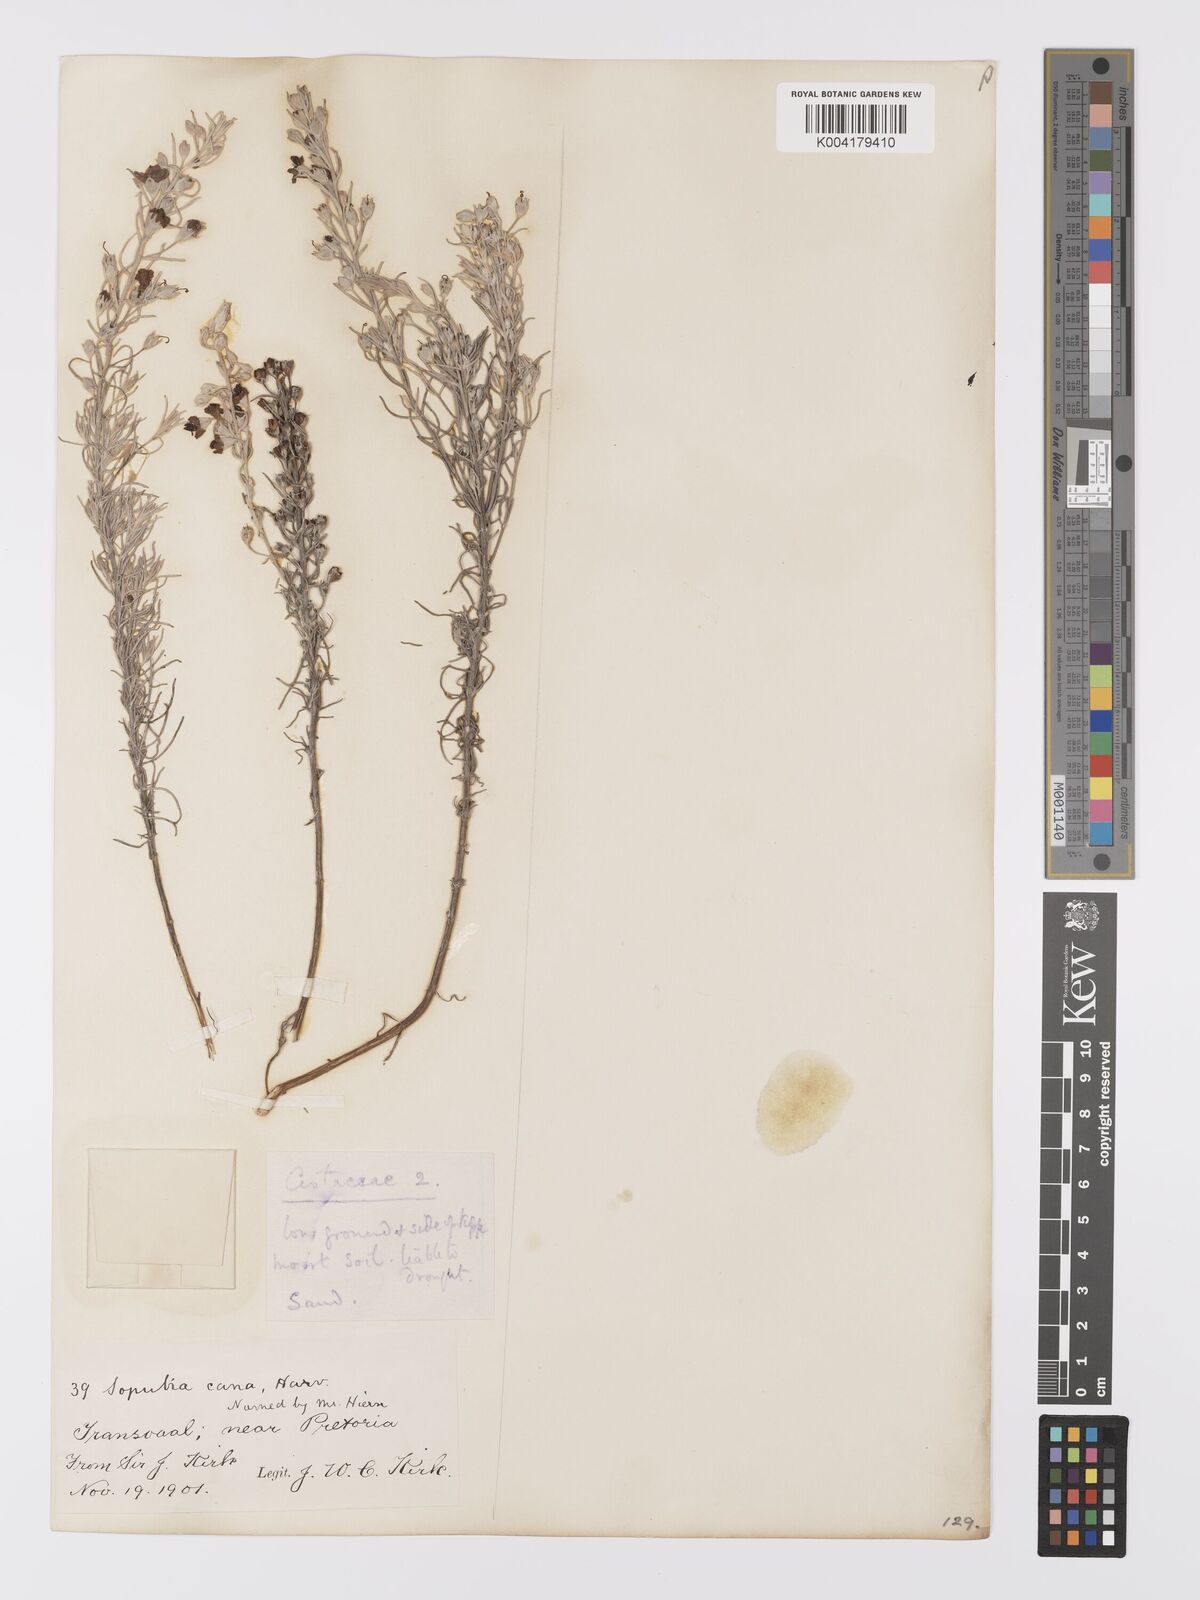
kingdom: Plantae
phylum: Tracheophyta
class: Magnoliopsida
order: Lamiales
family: Orobanchaceae
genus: Sopubia
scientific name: Sopubia cana
